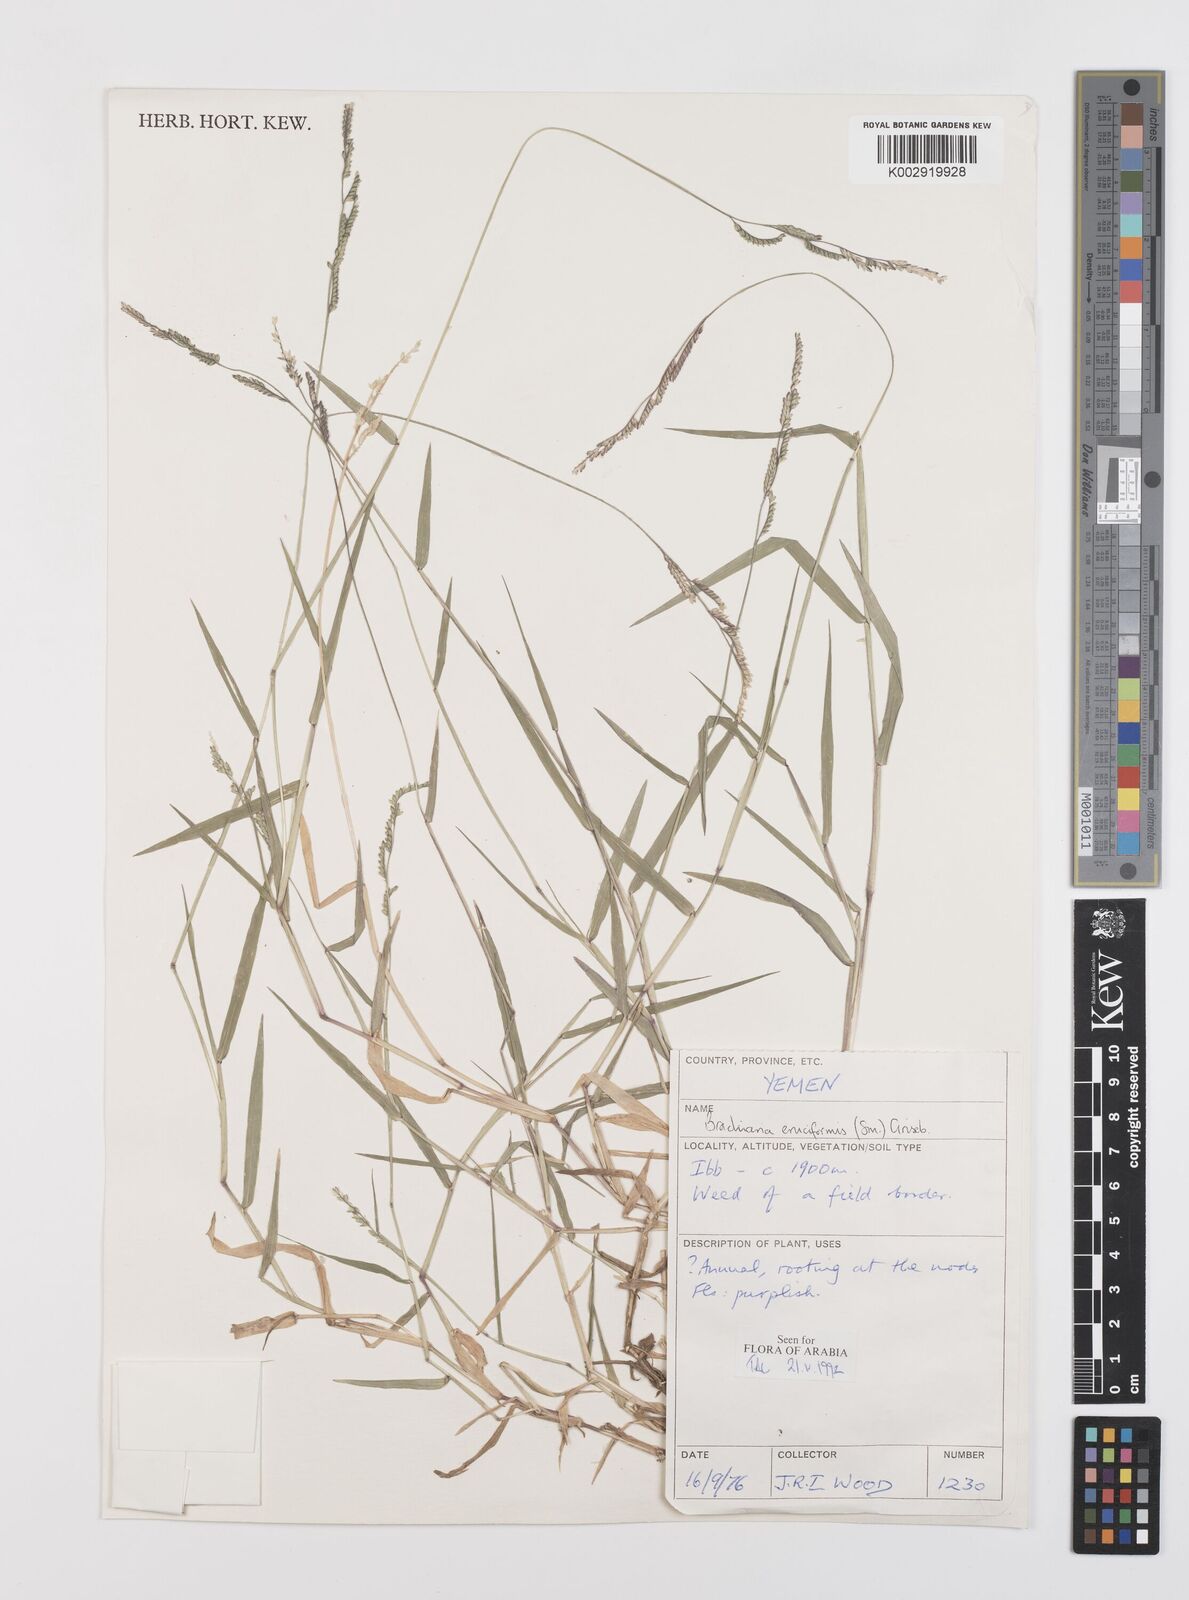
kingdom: Plantae
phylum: Tracheophyta
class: Liliopsida
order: Poales
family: Poaceae
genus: Moorochloa
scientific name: Moorochloa eruciformis
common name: Sweet signalgrass
